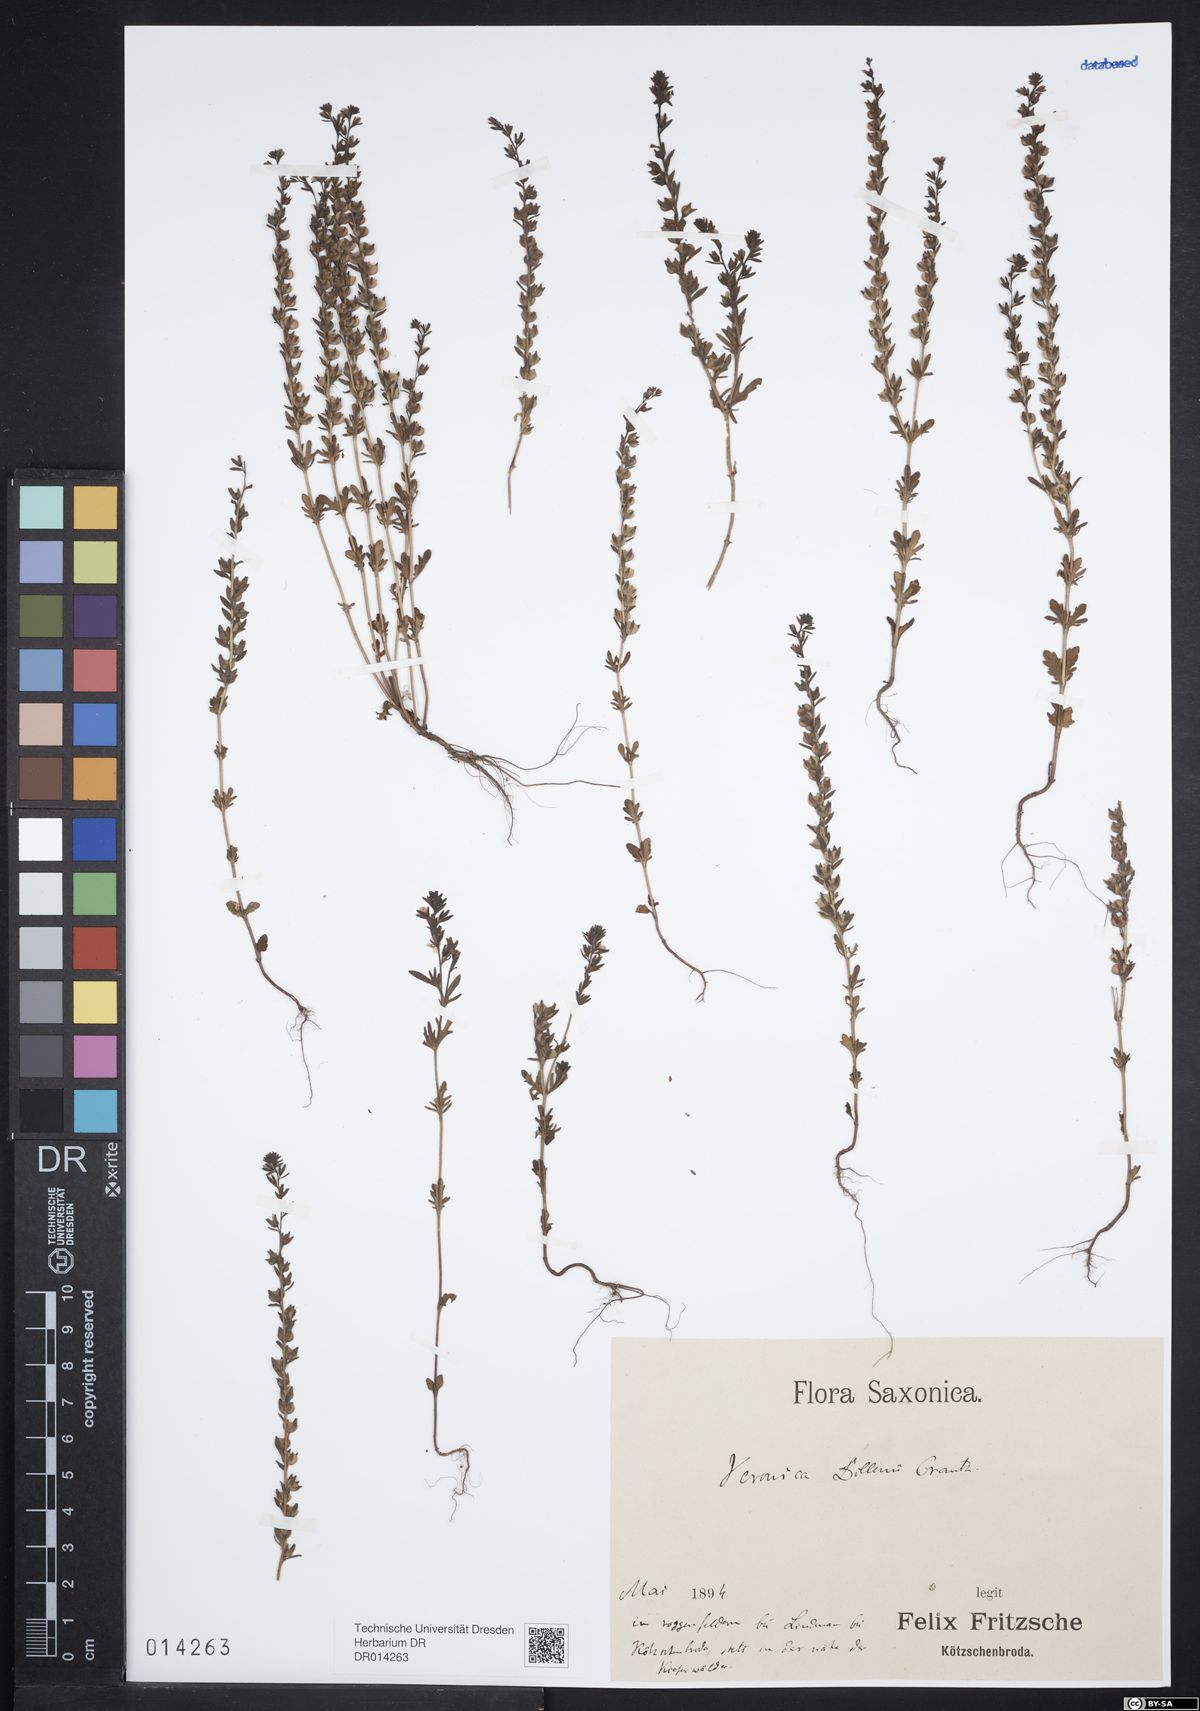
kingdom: Plantae
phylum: Tracheophyta
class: Magnoliopsida
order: Lamiales
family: Plantaginaceae
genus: Veronica
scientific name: Veronica dillenii
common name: Dillenius' speedwell
